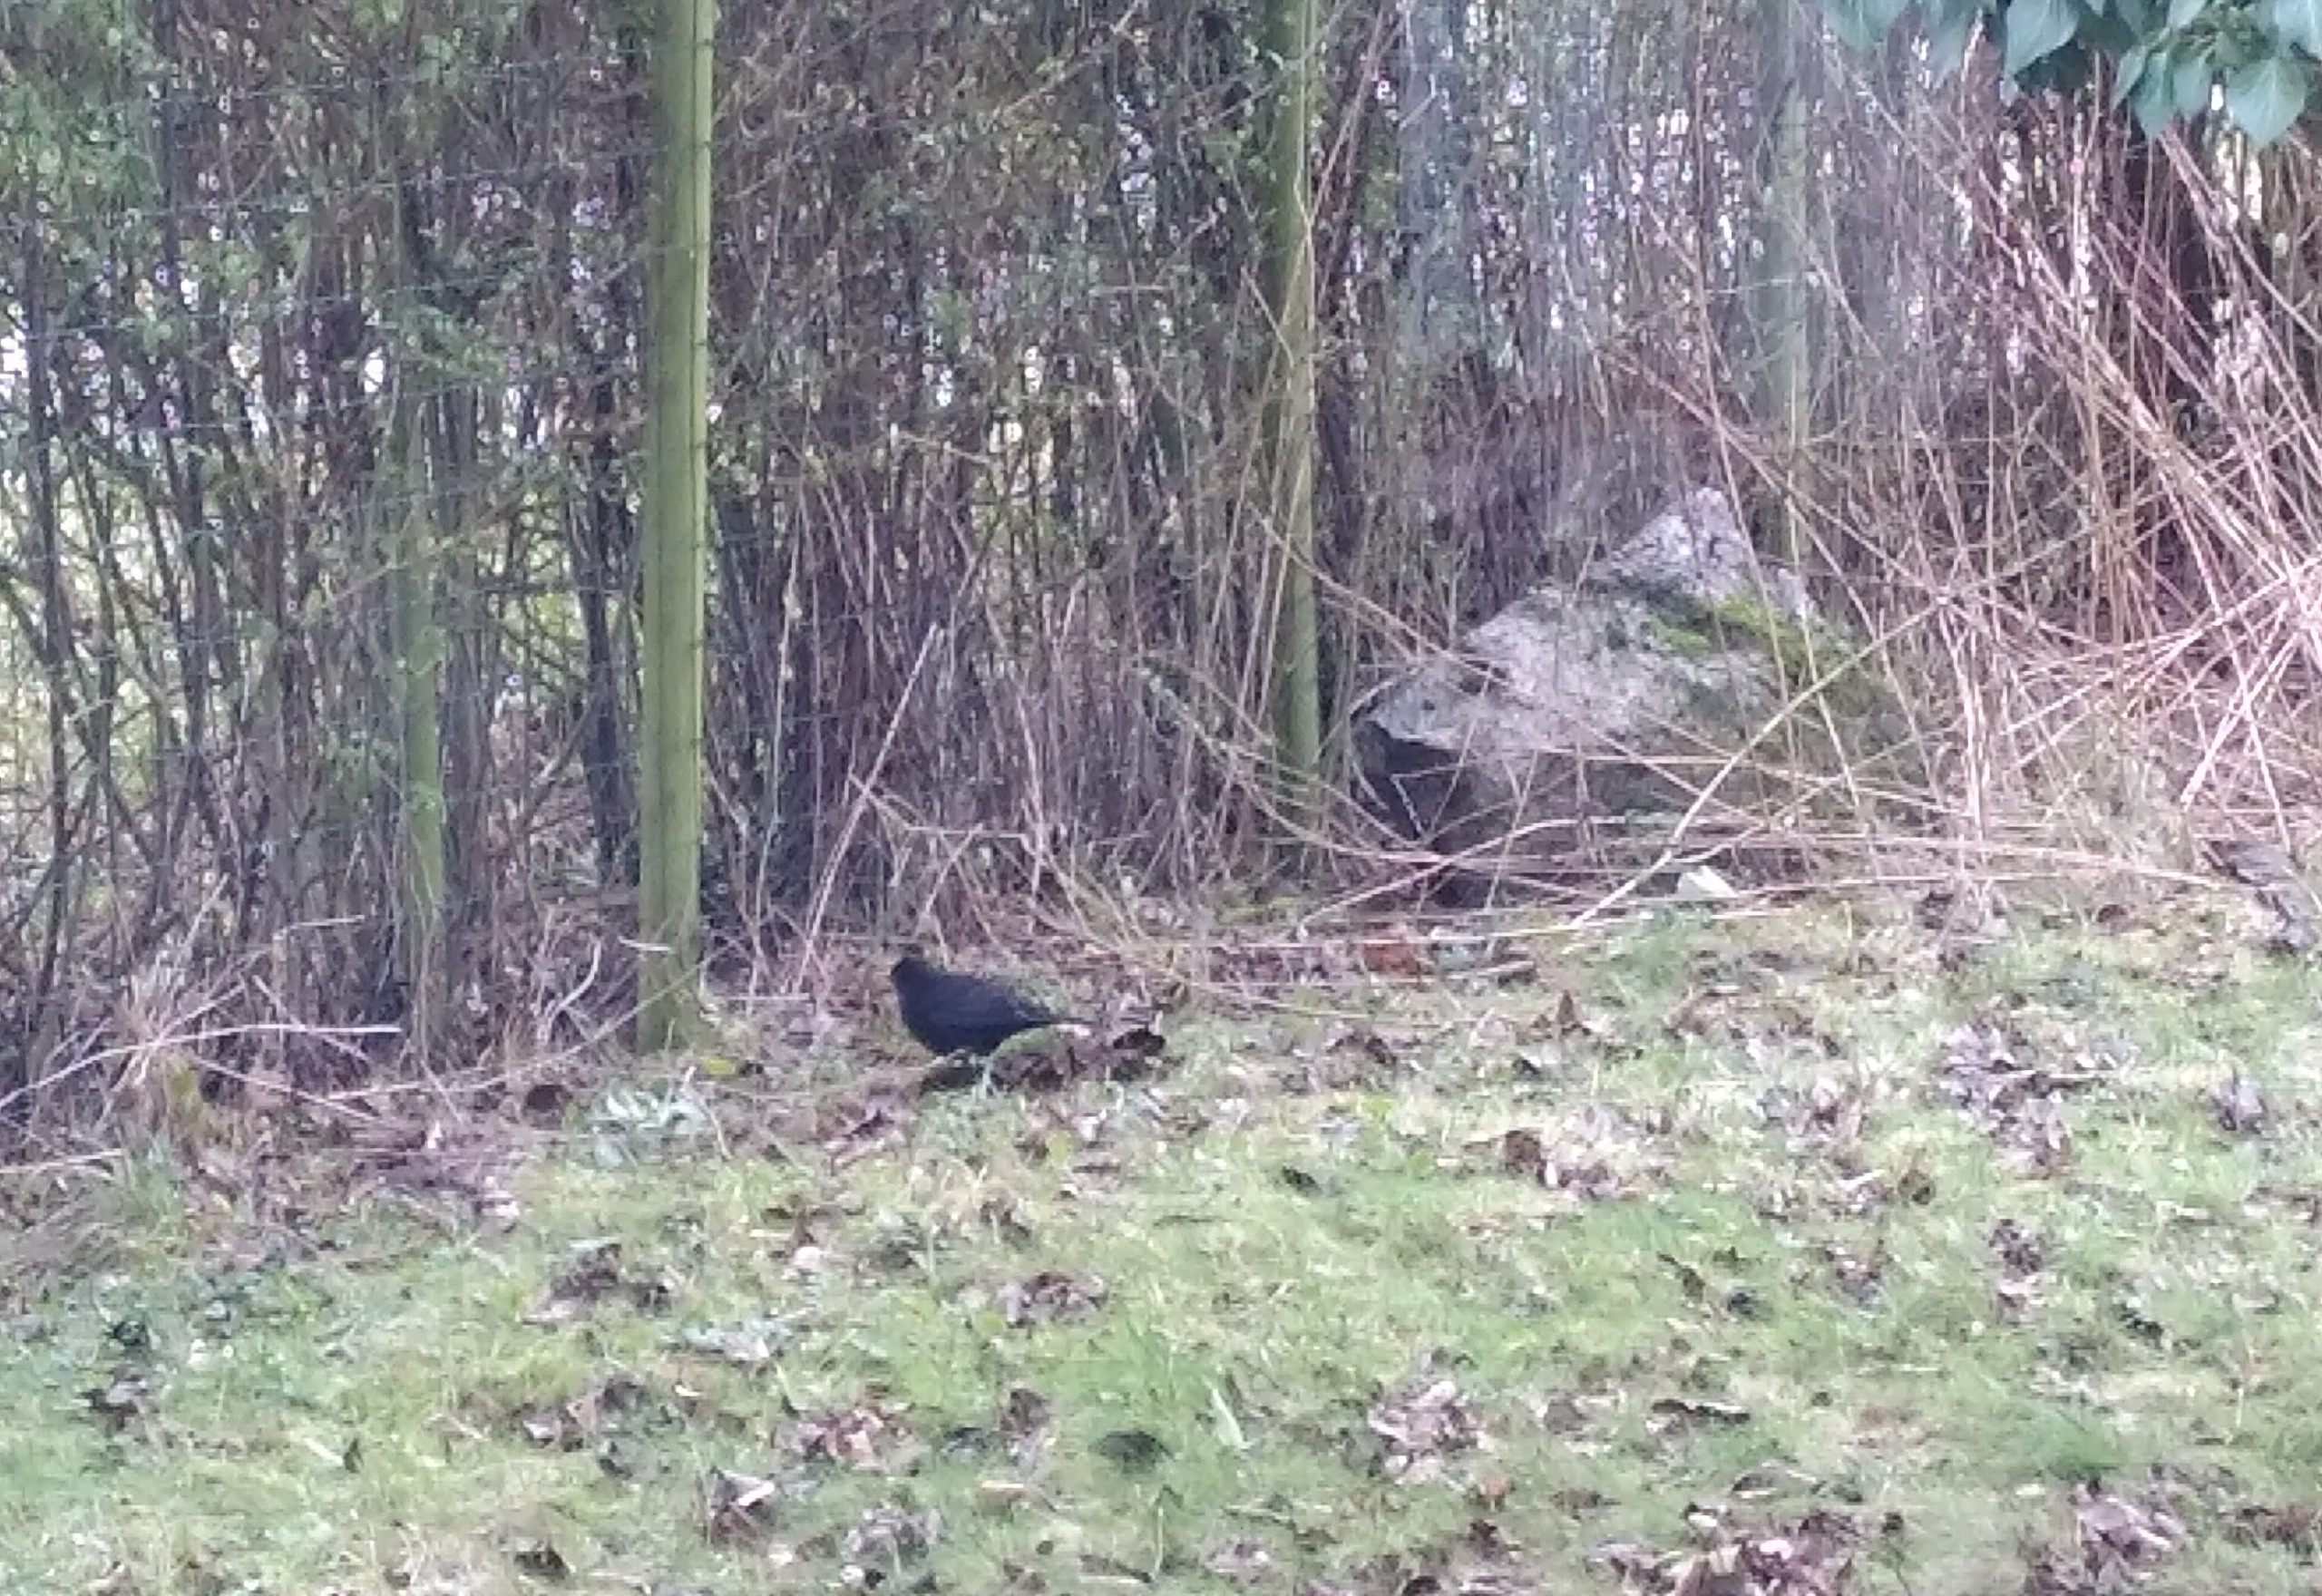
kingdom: Animalia
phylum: Chordata
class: Aves
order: Passeriformes
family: Turdidae
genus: Turdus
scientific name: Turdus merula
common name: Solsort
